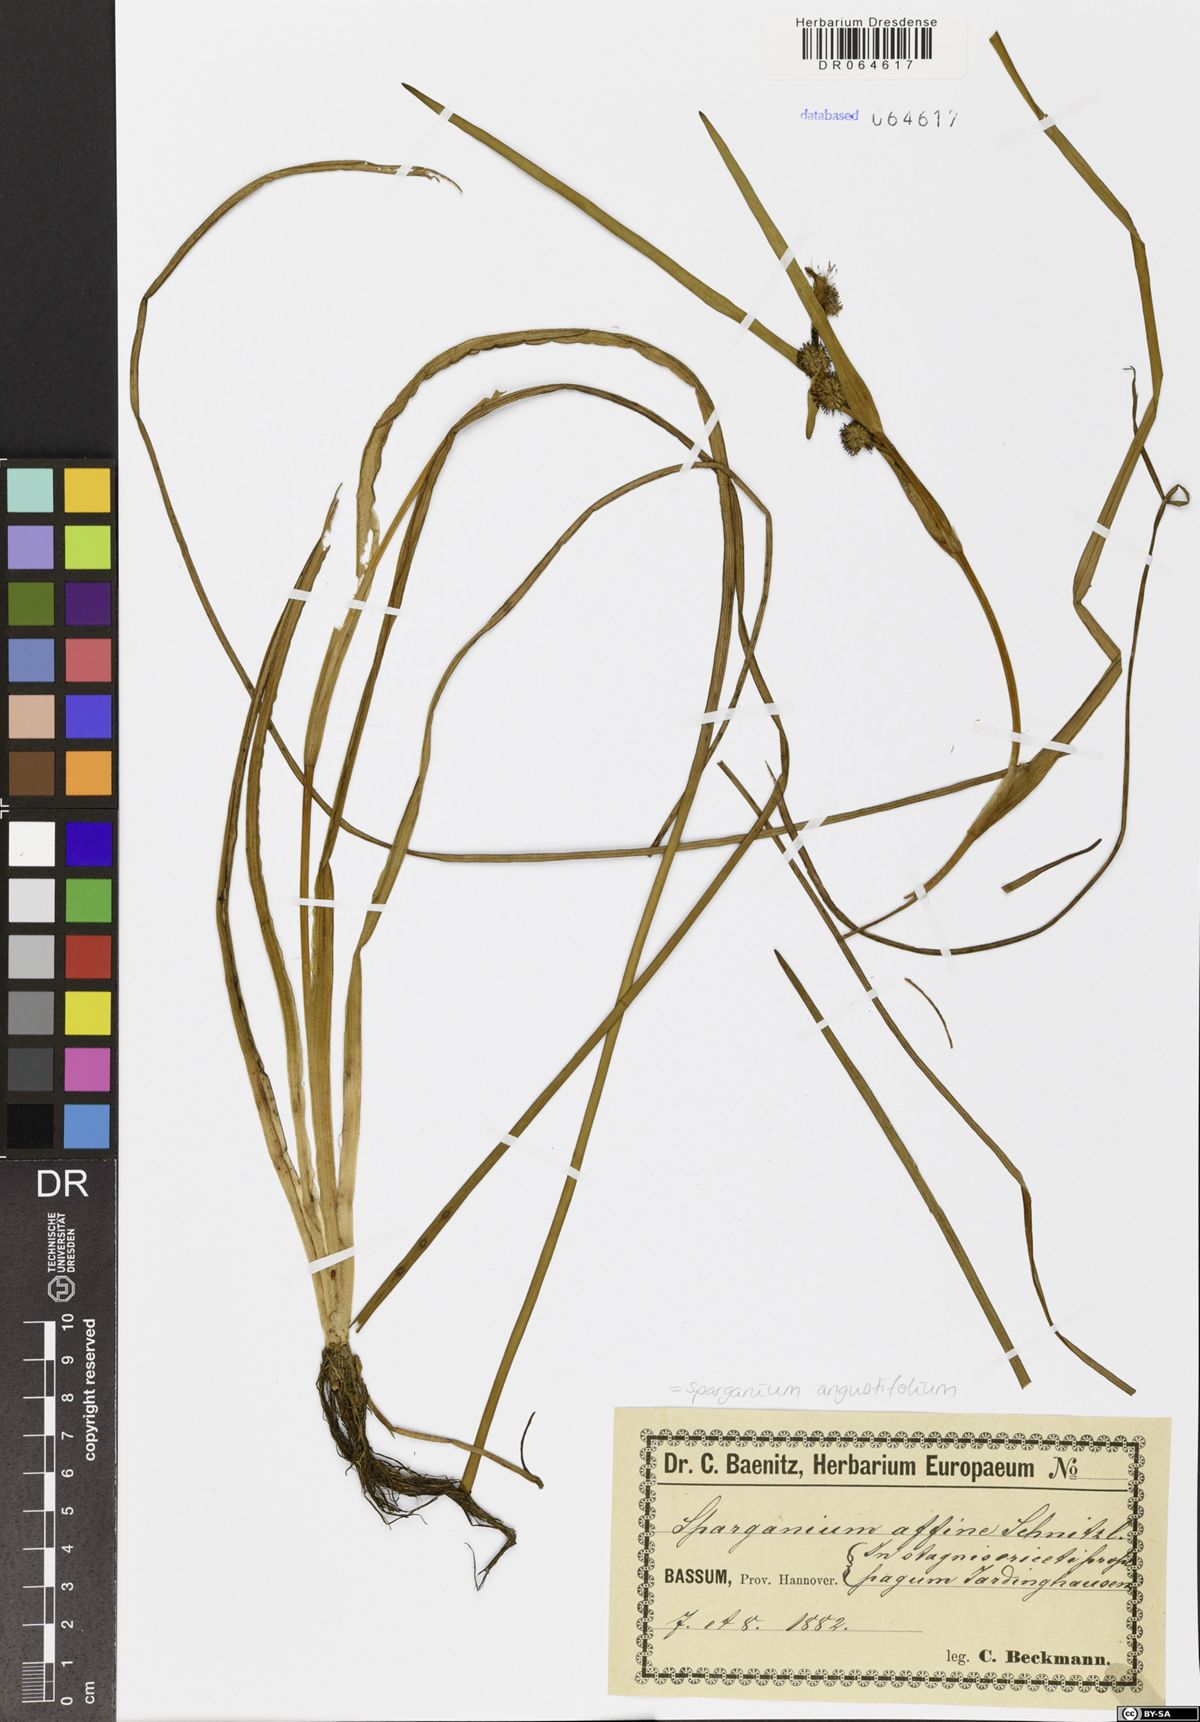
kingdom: Plantae
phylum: Tracheophyta
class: Liliopsida
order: Poales
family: Typhaceae
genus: Sparganium
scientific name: Sparganium angustifolium
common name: Floating bur-reed
